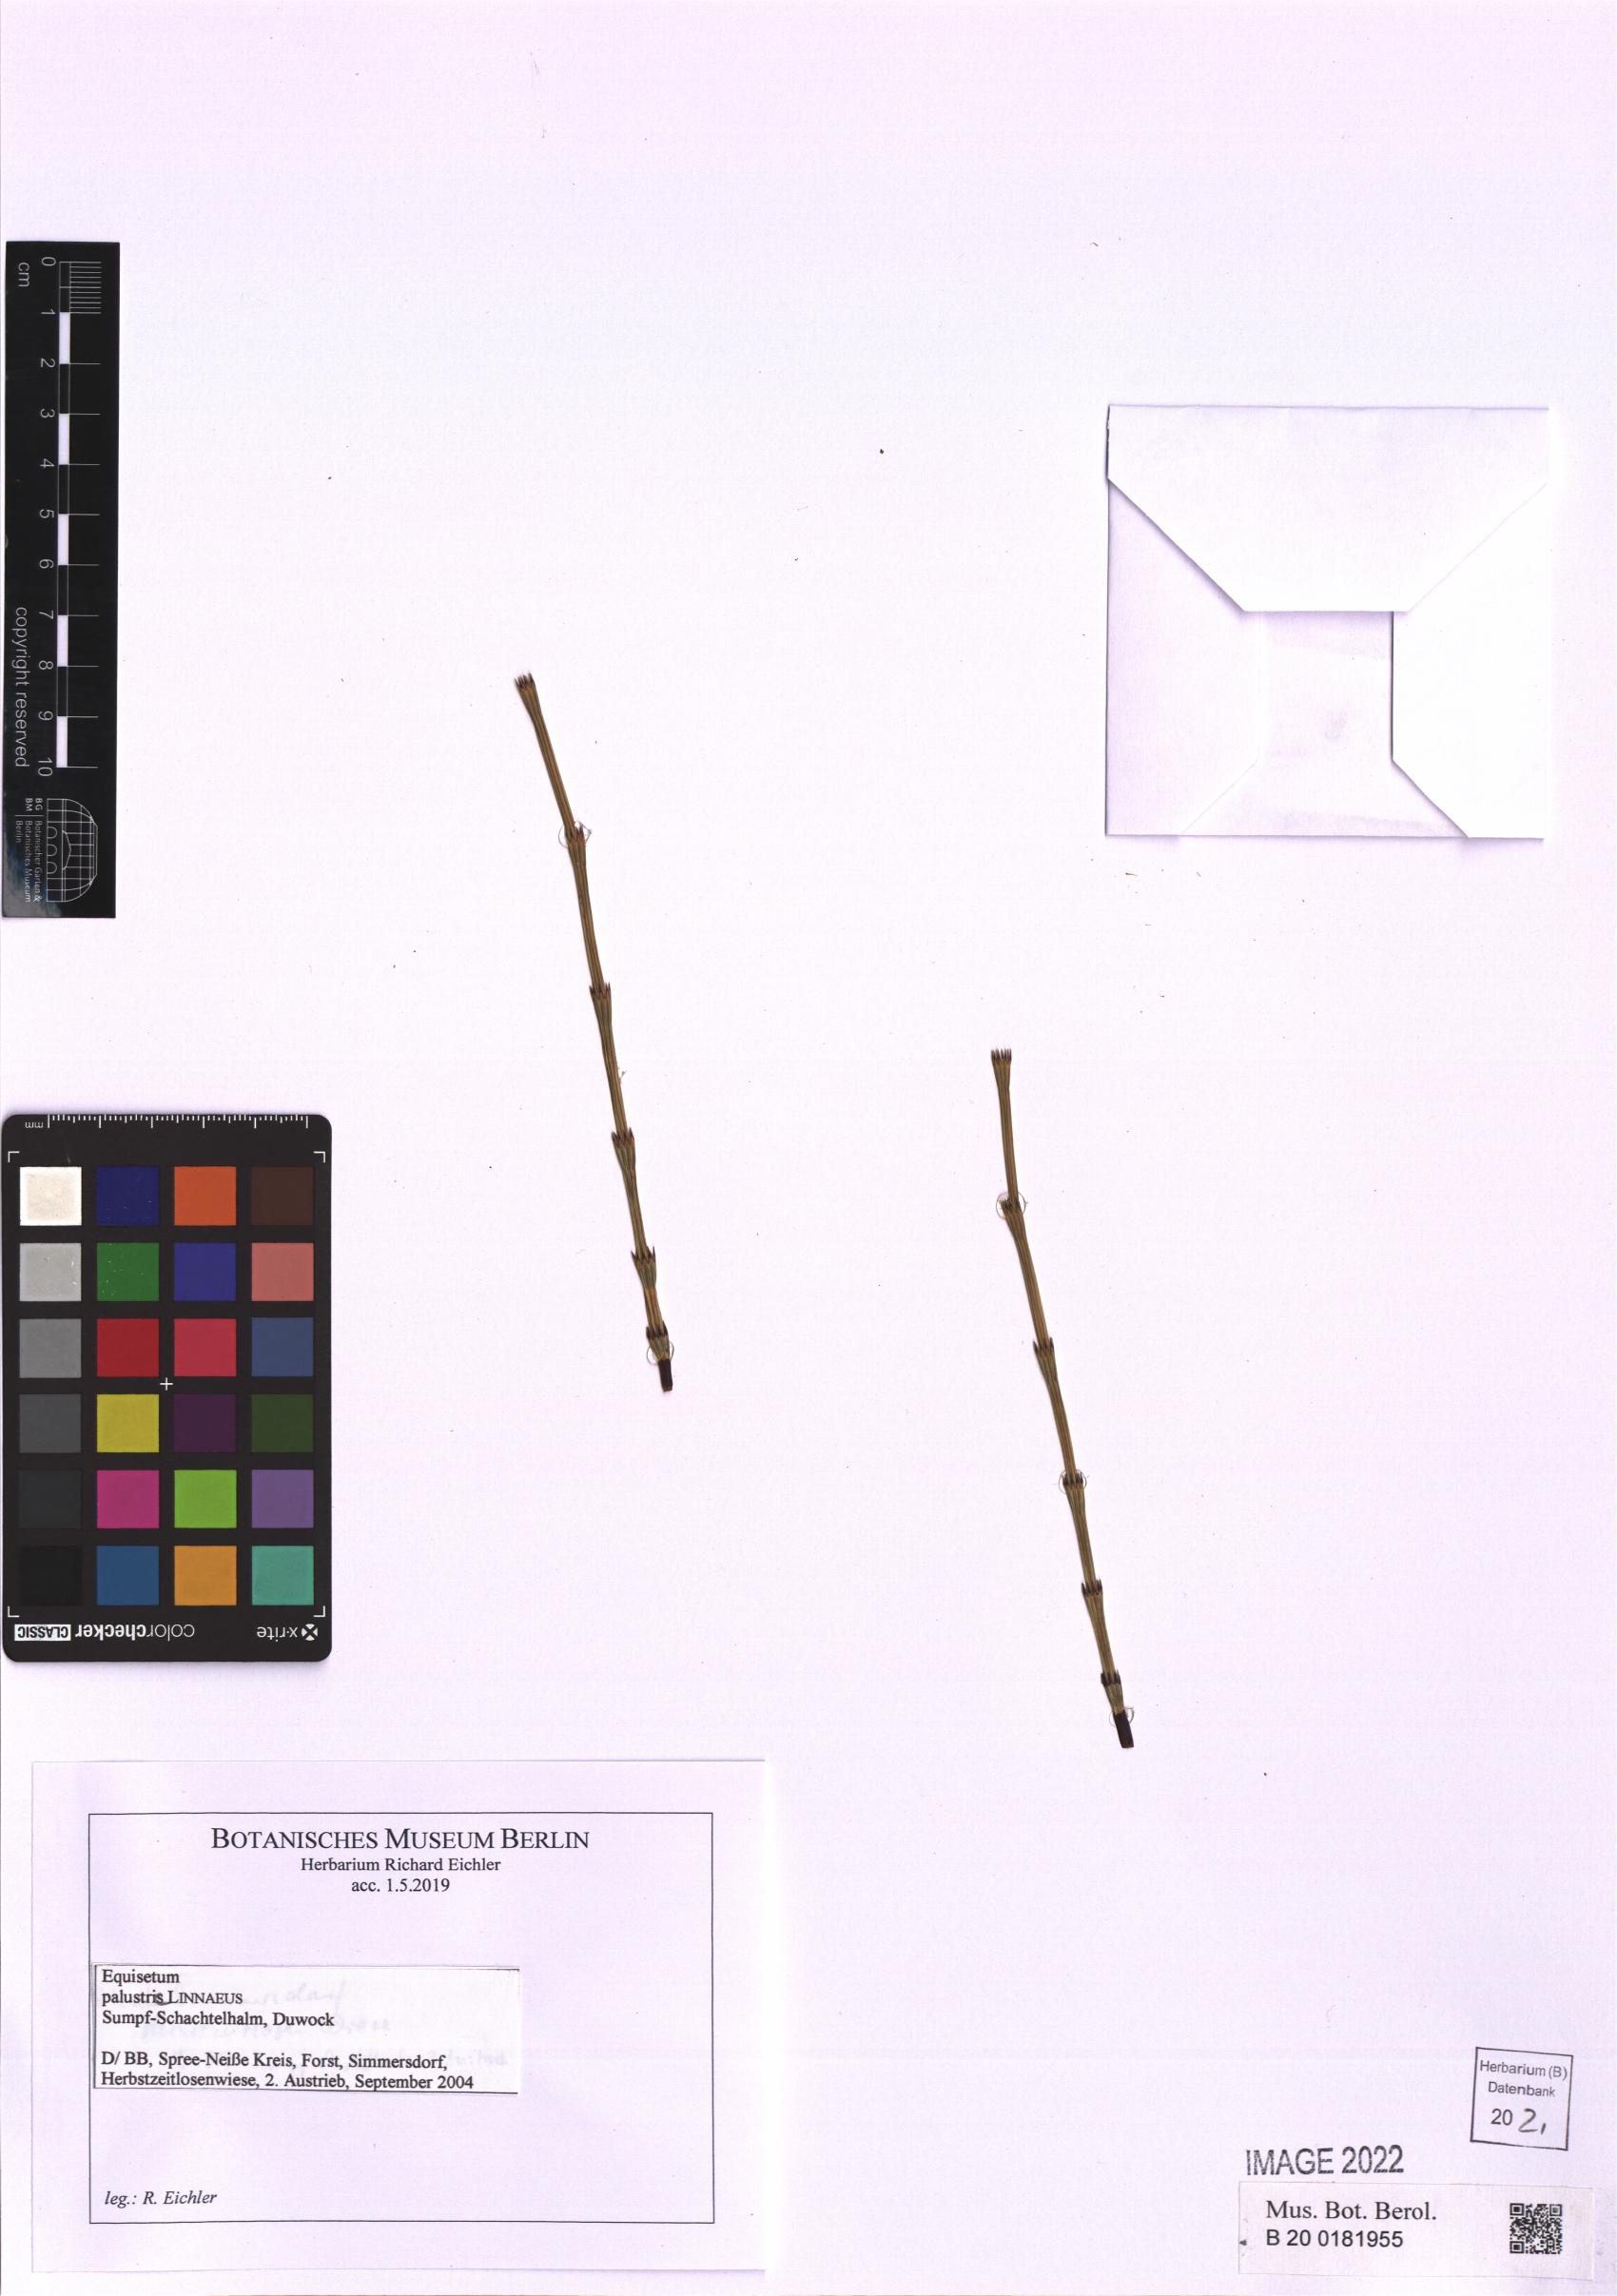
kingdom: Plantae
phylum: Tracheophyta
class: Polypodiopsida
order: Equisetales
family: Equisetaceae
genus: Equisetum
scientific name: Equisetum palustre
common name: Marsh horsetail
